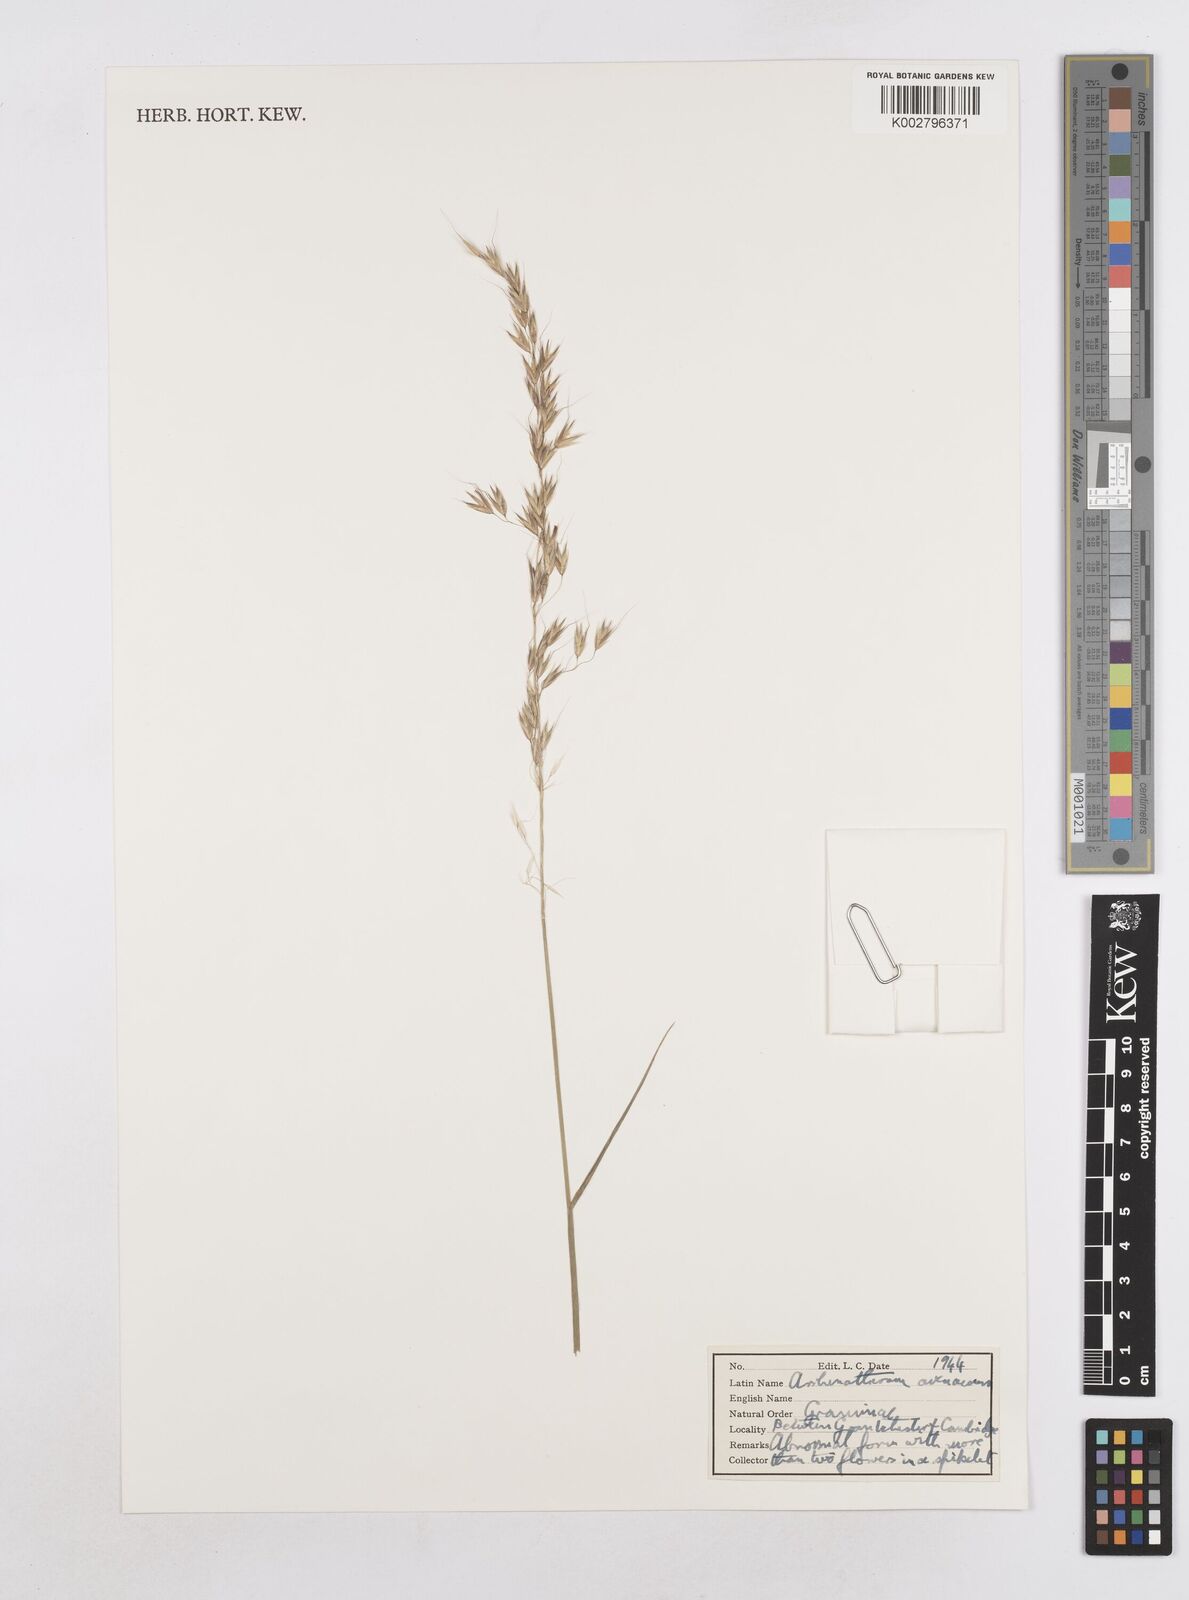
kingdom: Plantae
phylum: Tracheophyta
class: Liliopsida
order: Poales
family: Poaceae
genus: Arrhenatherum
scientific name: Arrhenatherum elatius
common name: Tall oatgrass
